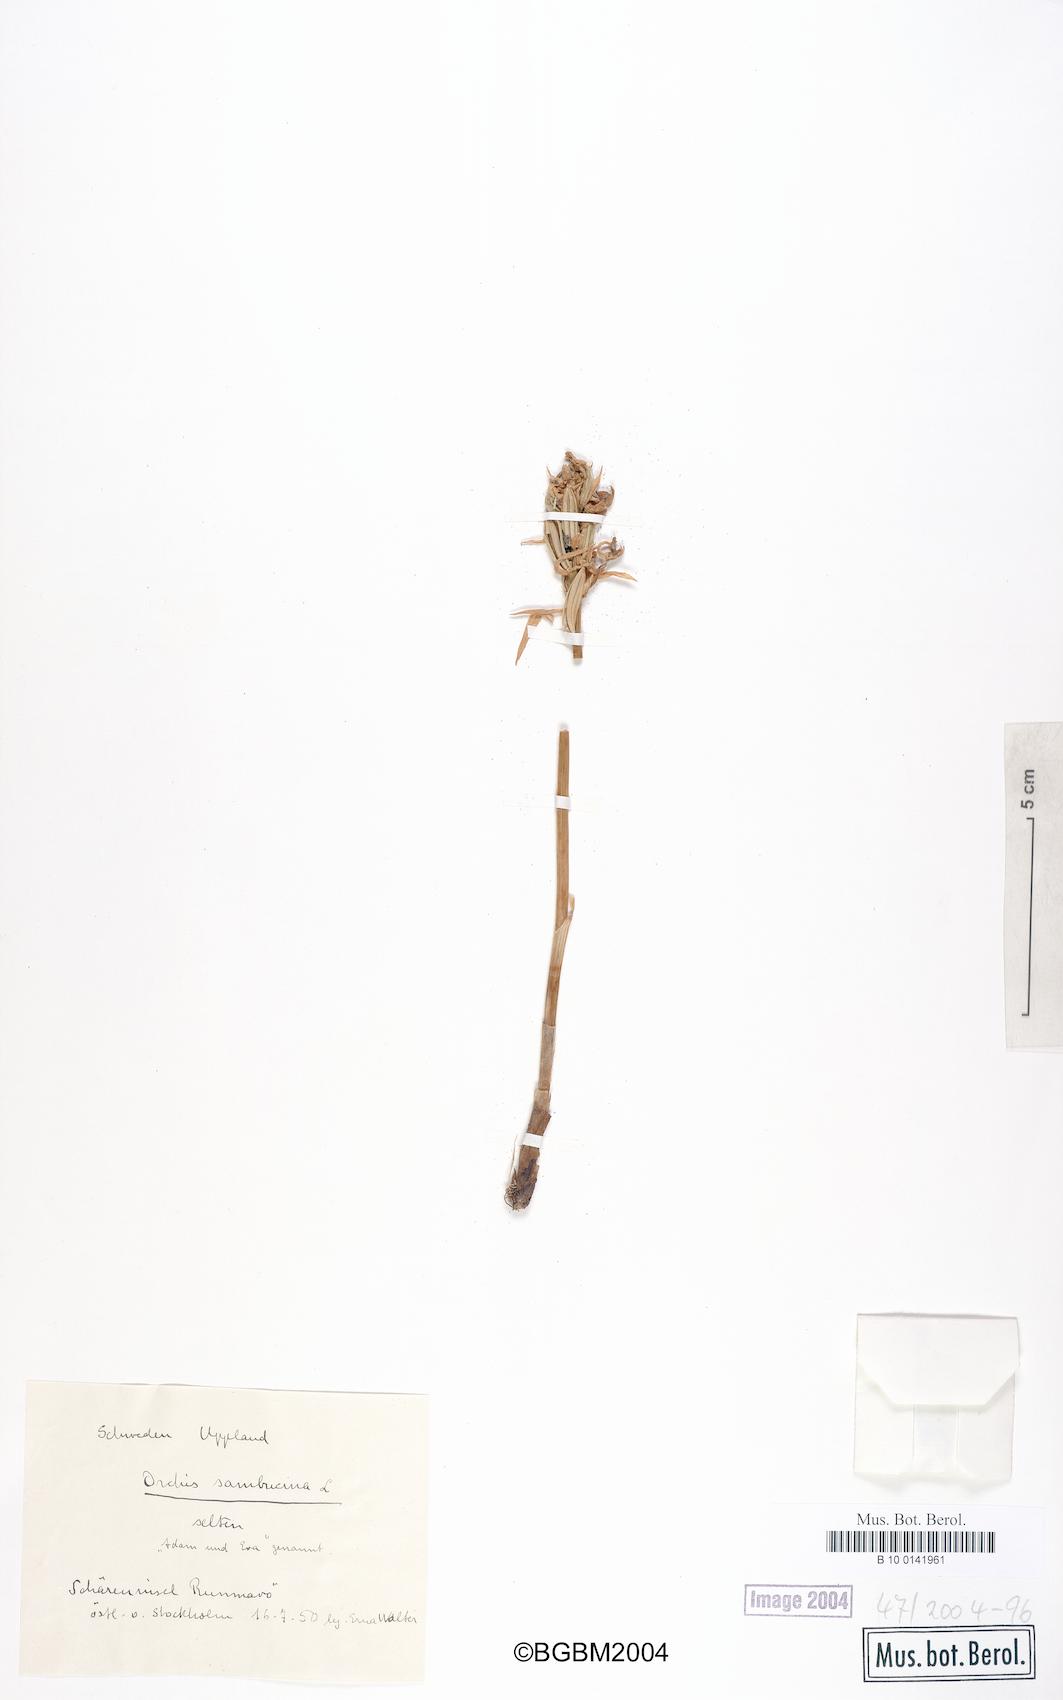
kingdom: Plantae
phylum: Tracheophyta
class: Liliopsida
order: Asparagales
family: Orchidaceae
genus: Dactylorhiza
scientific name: Dactylorhiza sambucina
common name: Elder-flowered orchid
